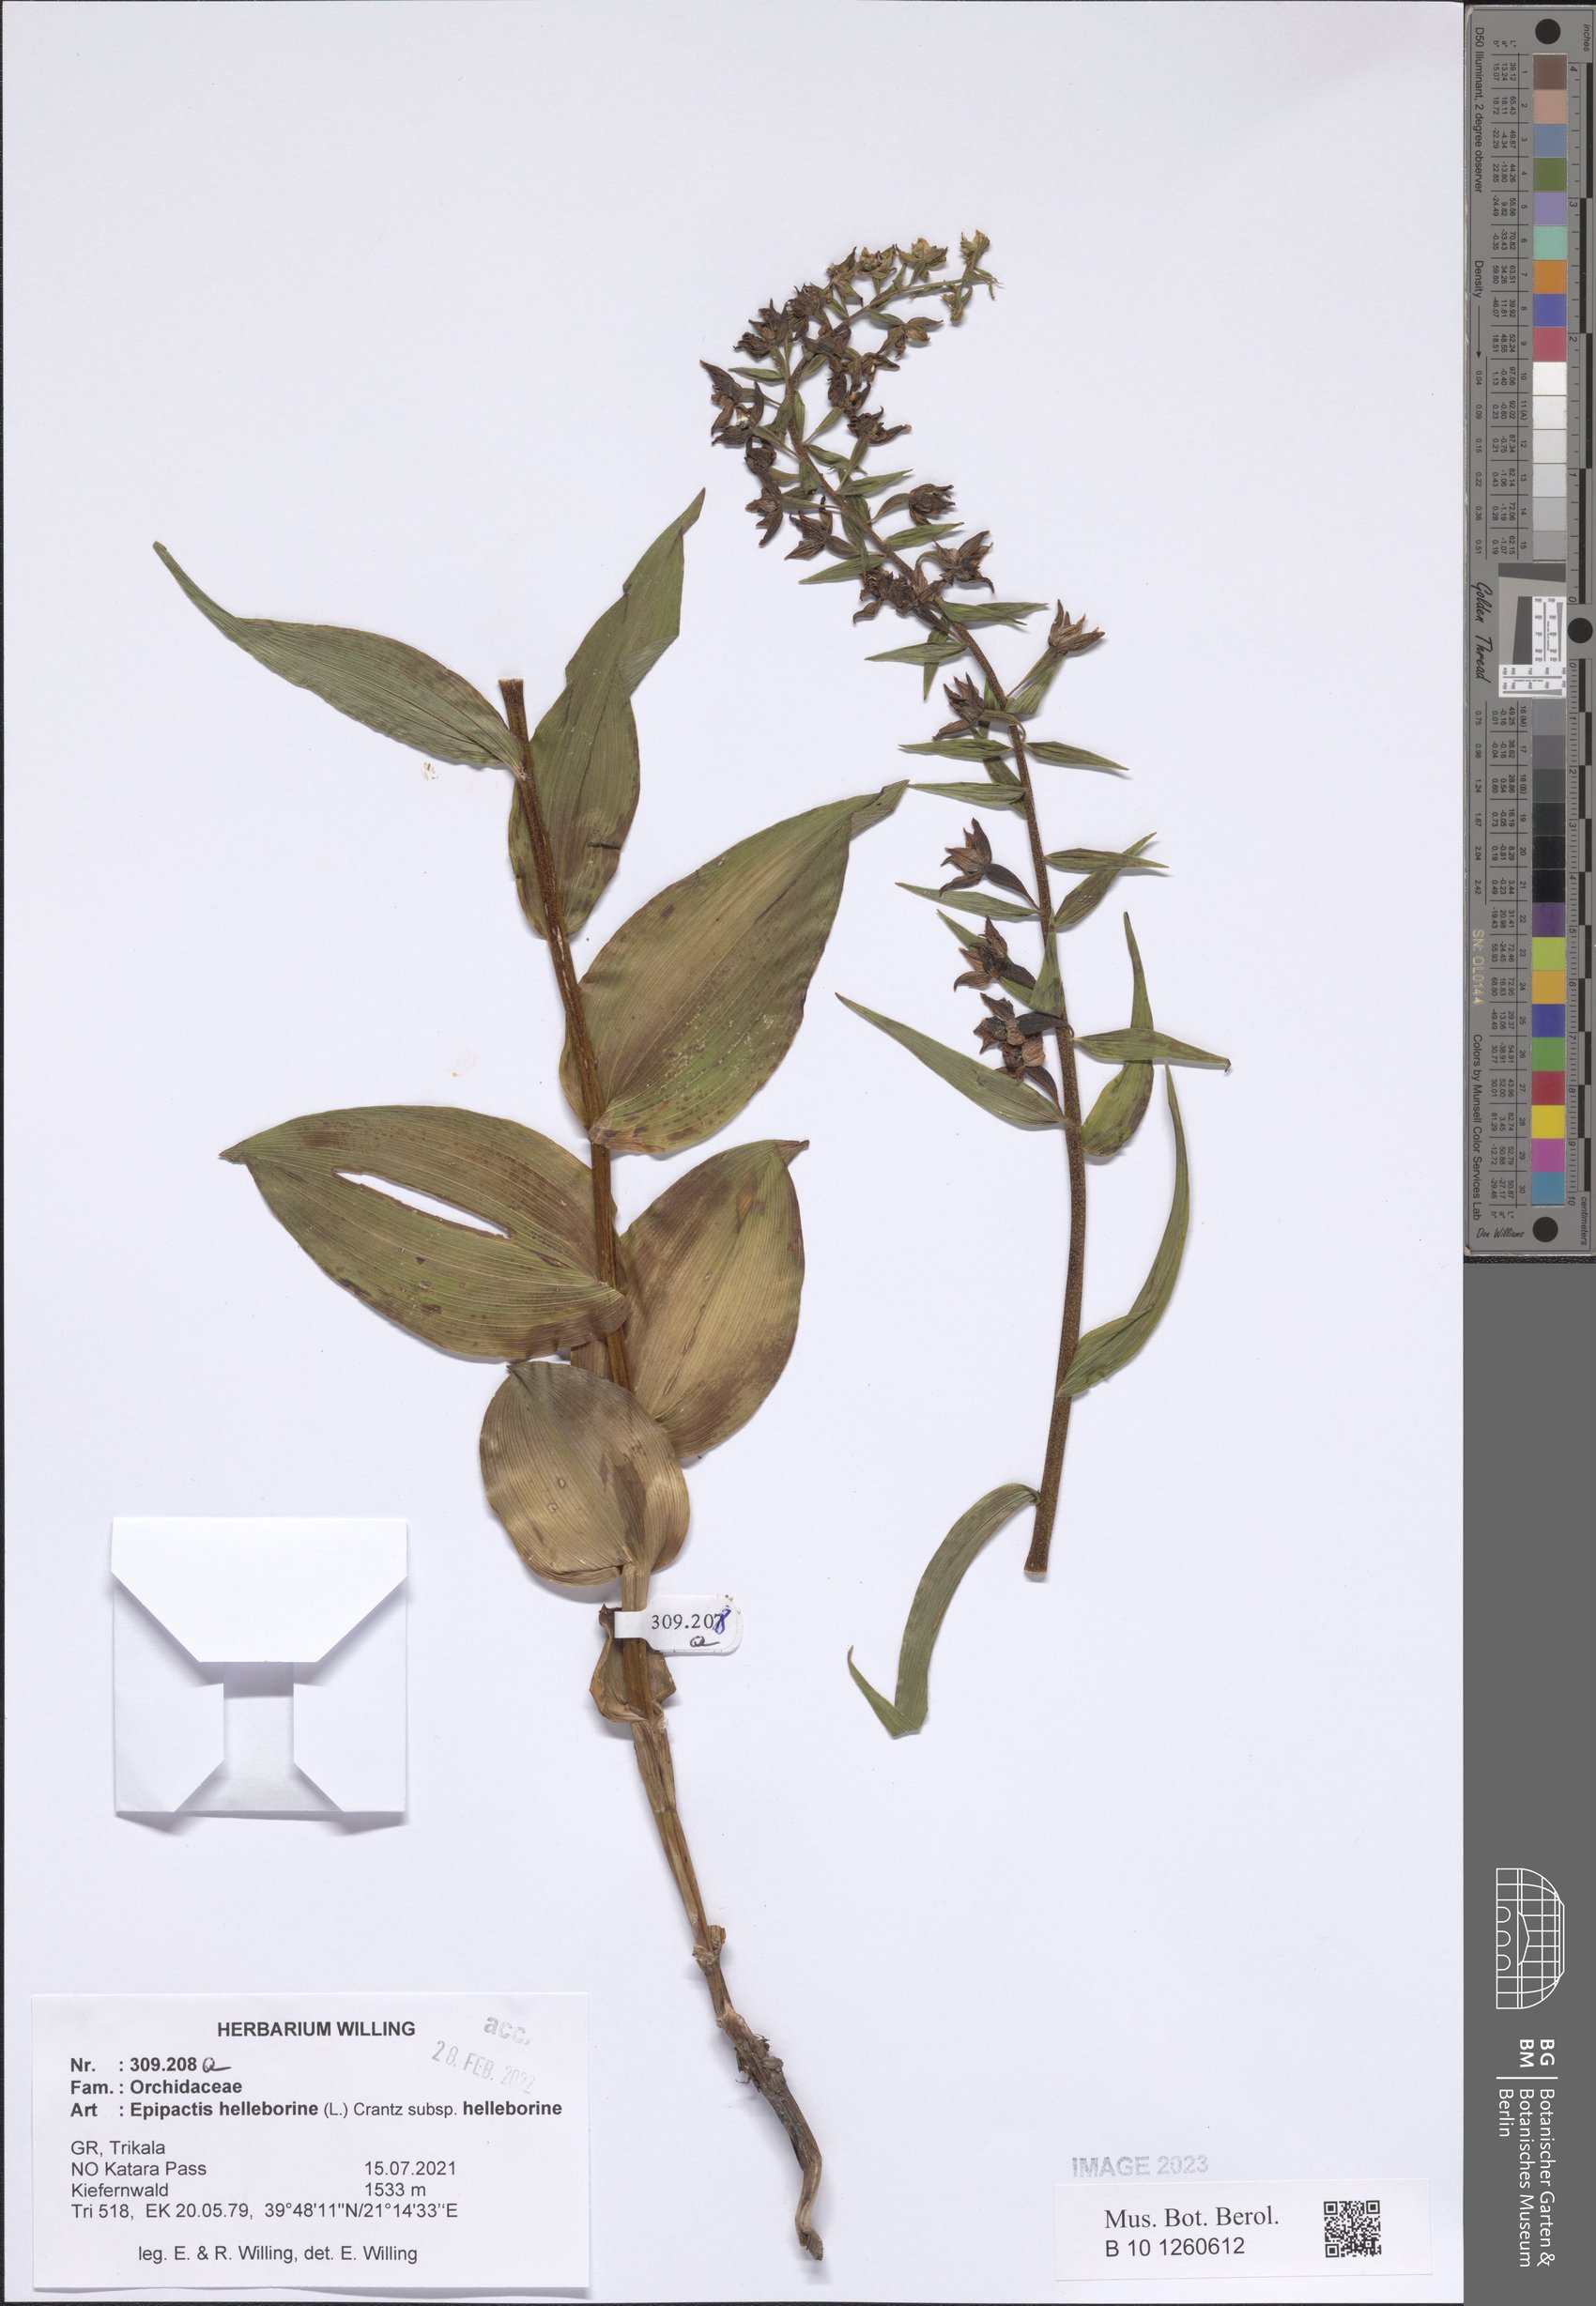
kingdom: Plantae
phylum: Tracheophyta
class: Liliopsida
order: Asparagales
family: Orchidaceae
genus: Epipactis
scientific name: Epipactis helleborine
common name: Broad-leaved helleborine
